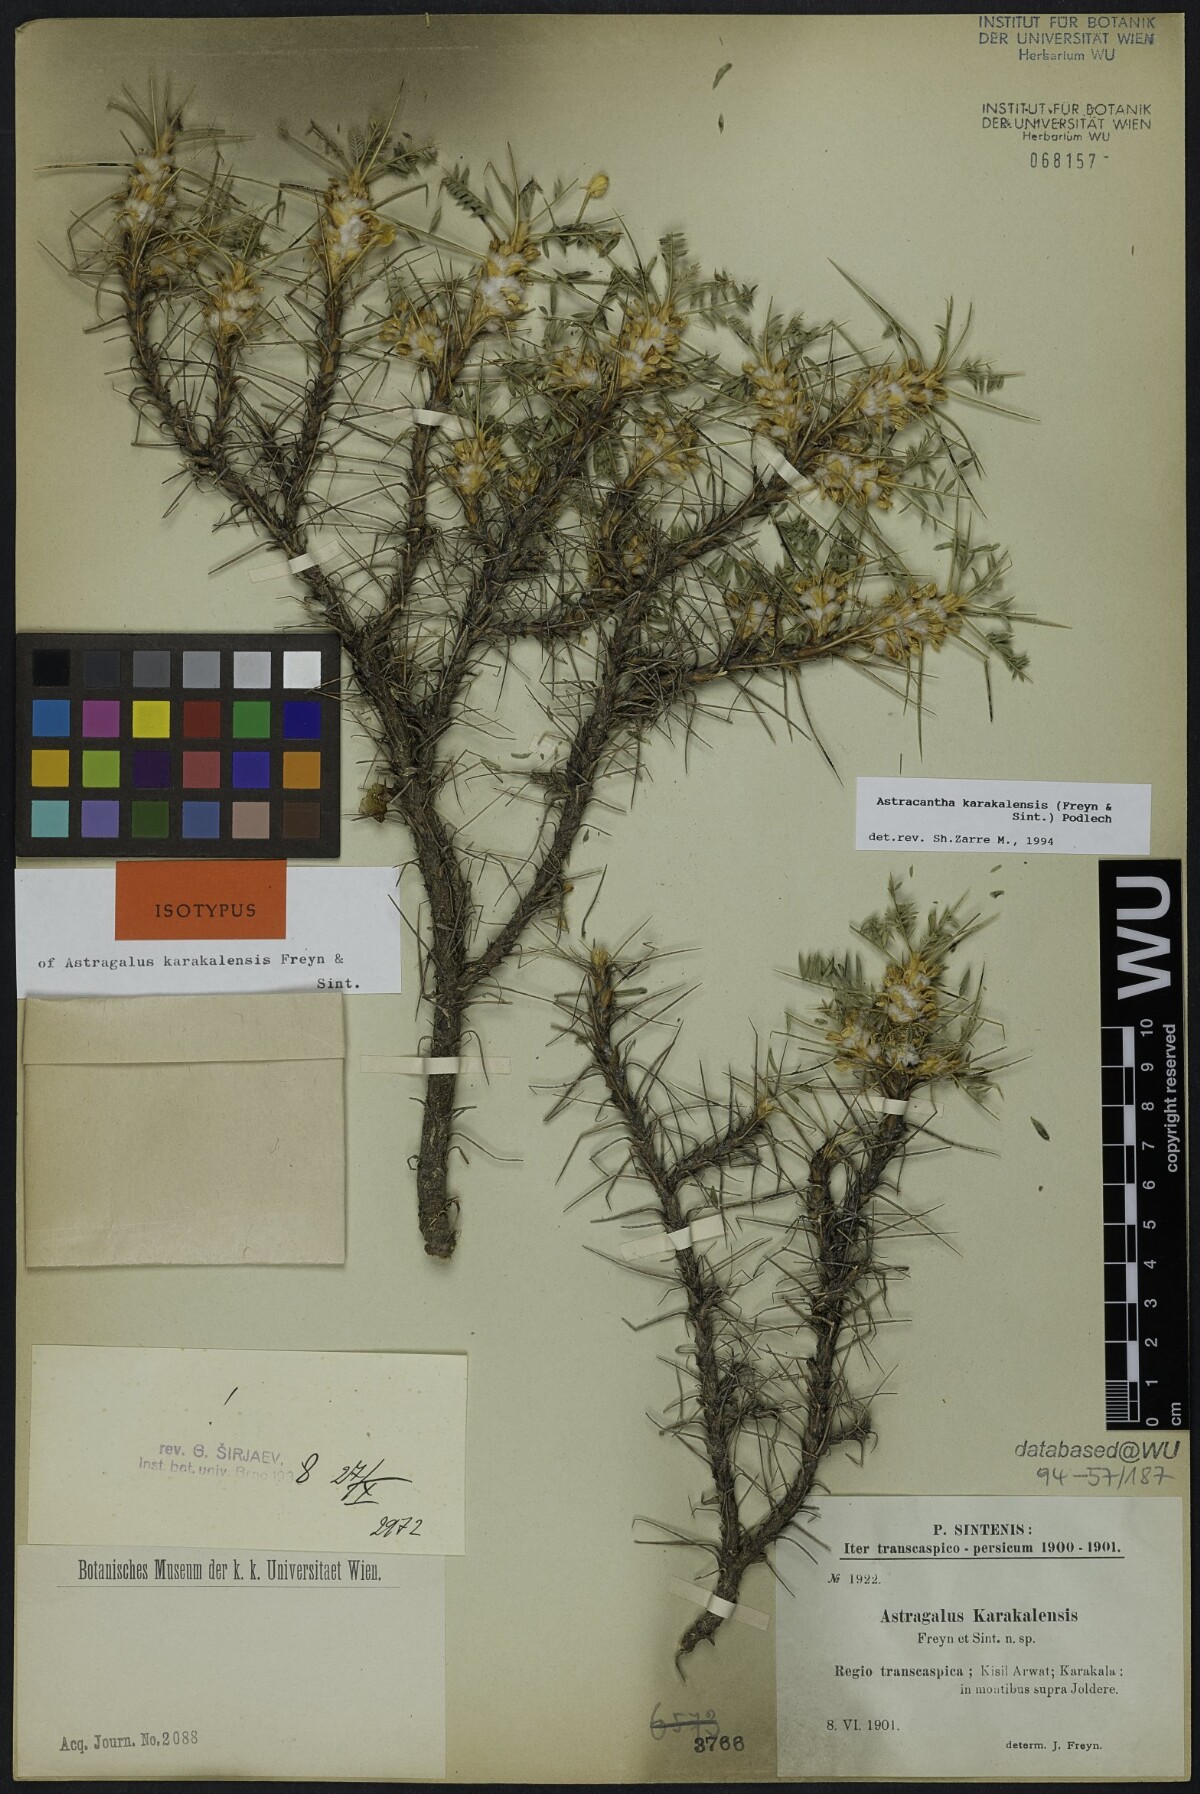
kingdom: Plantae
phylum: Tracheophyta
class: Magnoliopsida
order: Fabales
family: Fabaceae
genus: Astragalus
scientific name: Astragalus karakalensis
